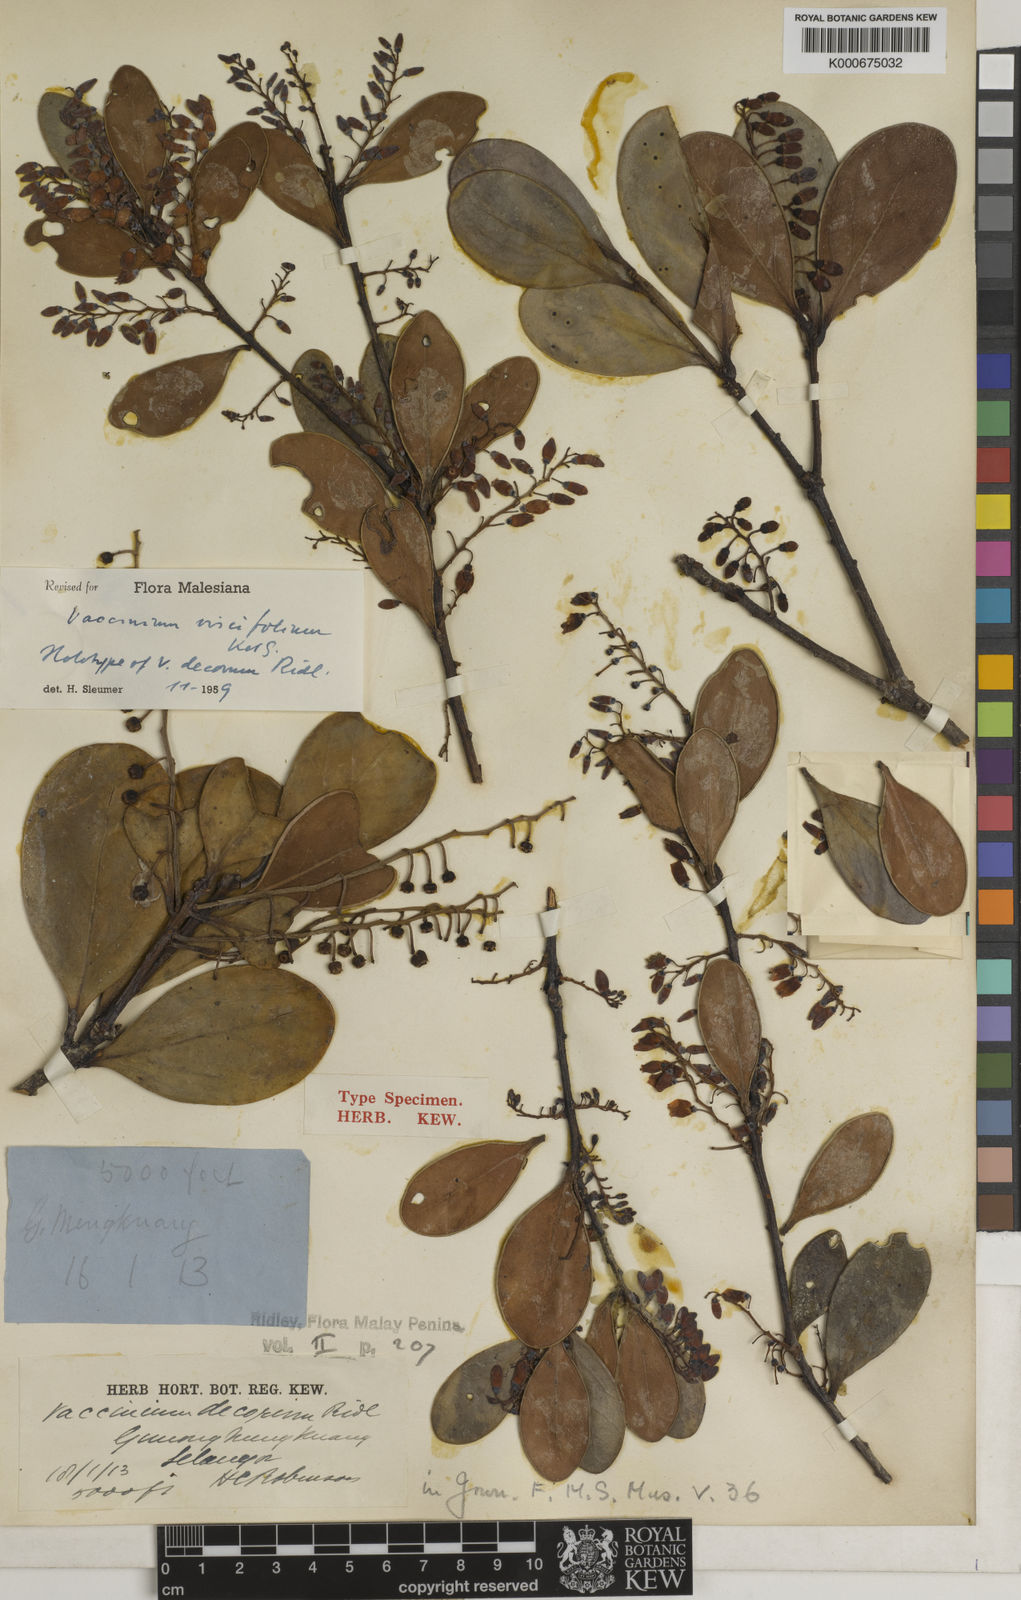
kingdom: Plantae
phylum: Tracheophyta
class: Magnoliopsida
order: Ericales
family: Ericaceae
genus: Vaccinium
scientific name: Vaccinium viscifolium
